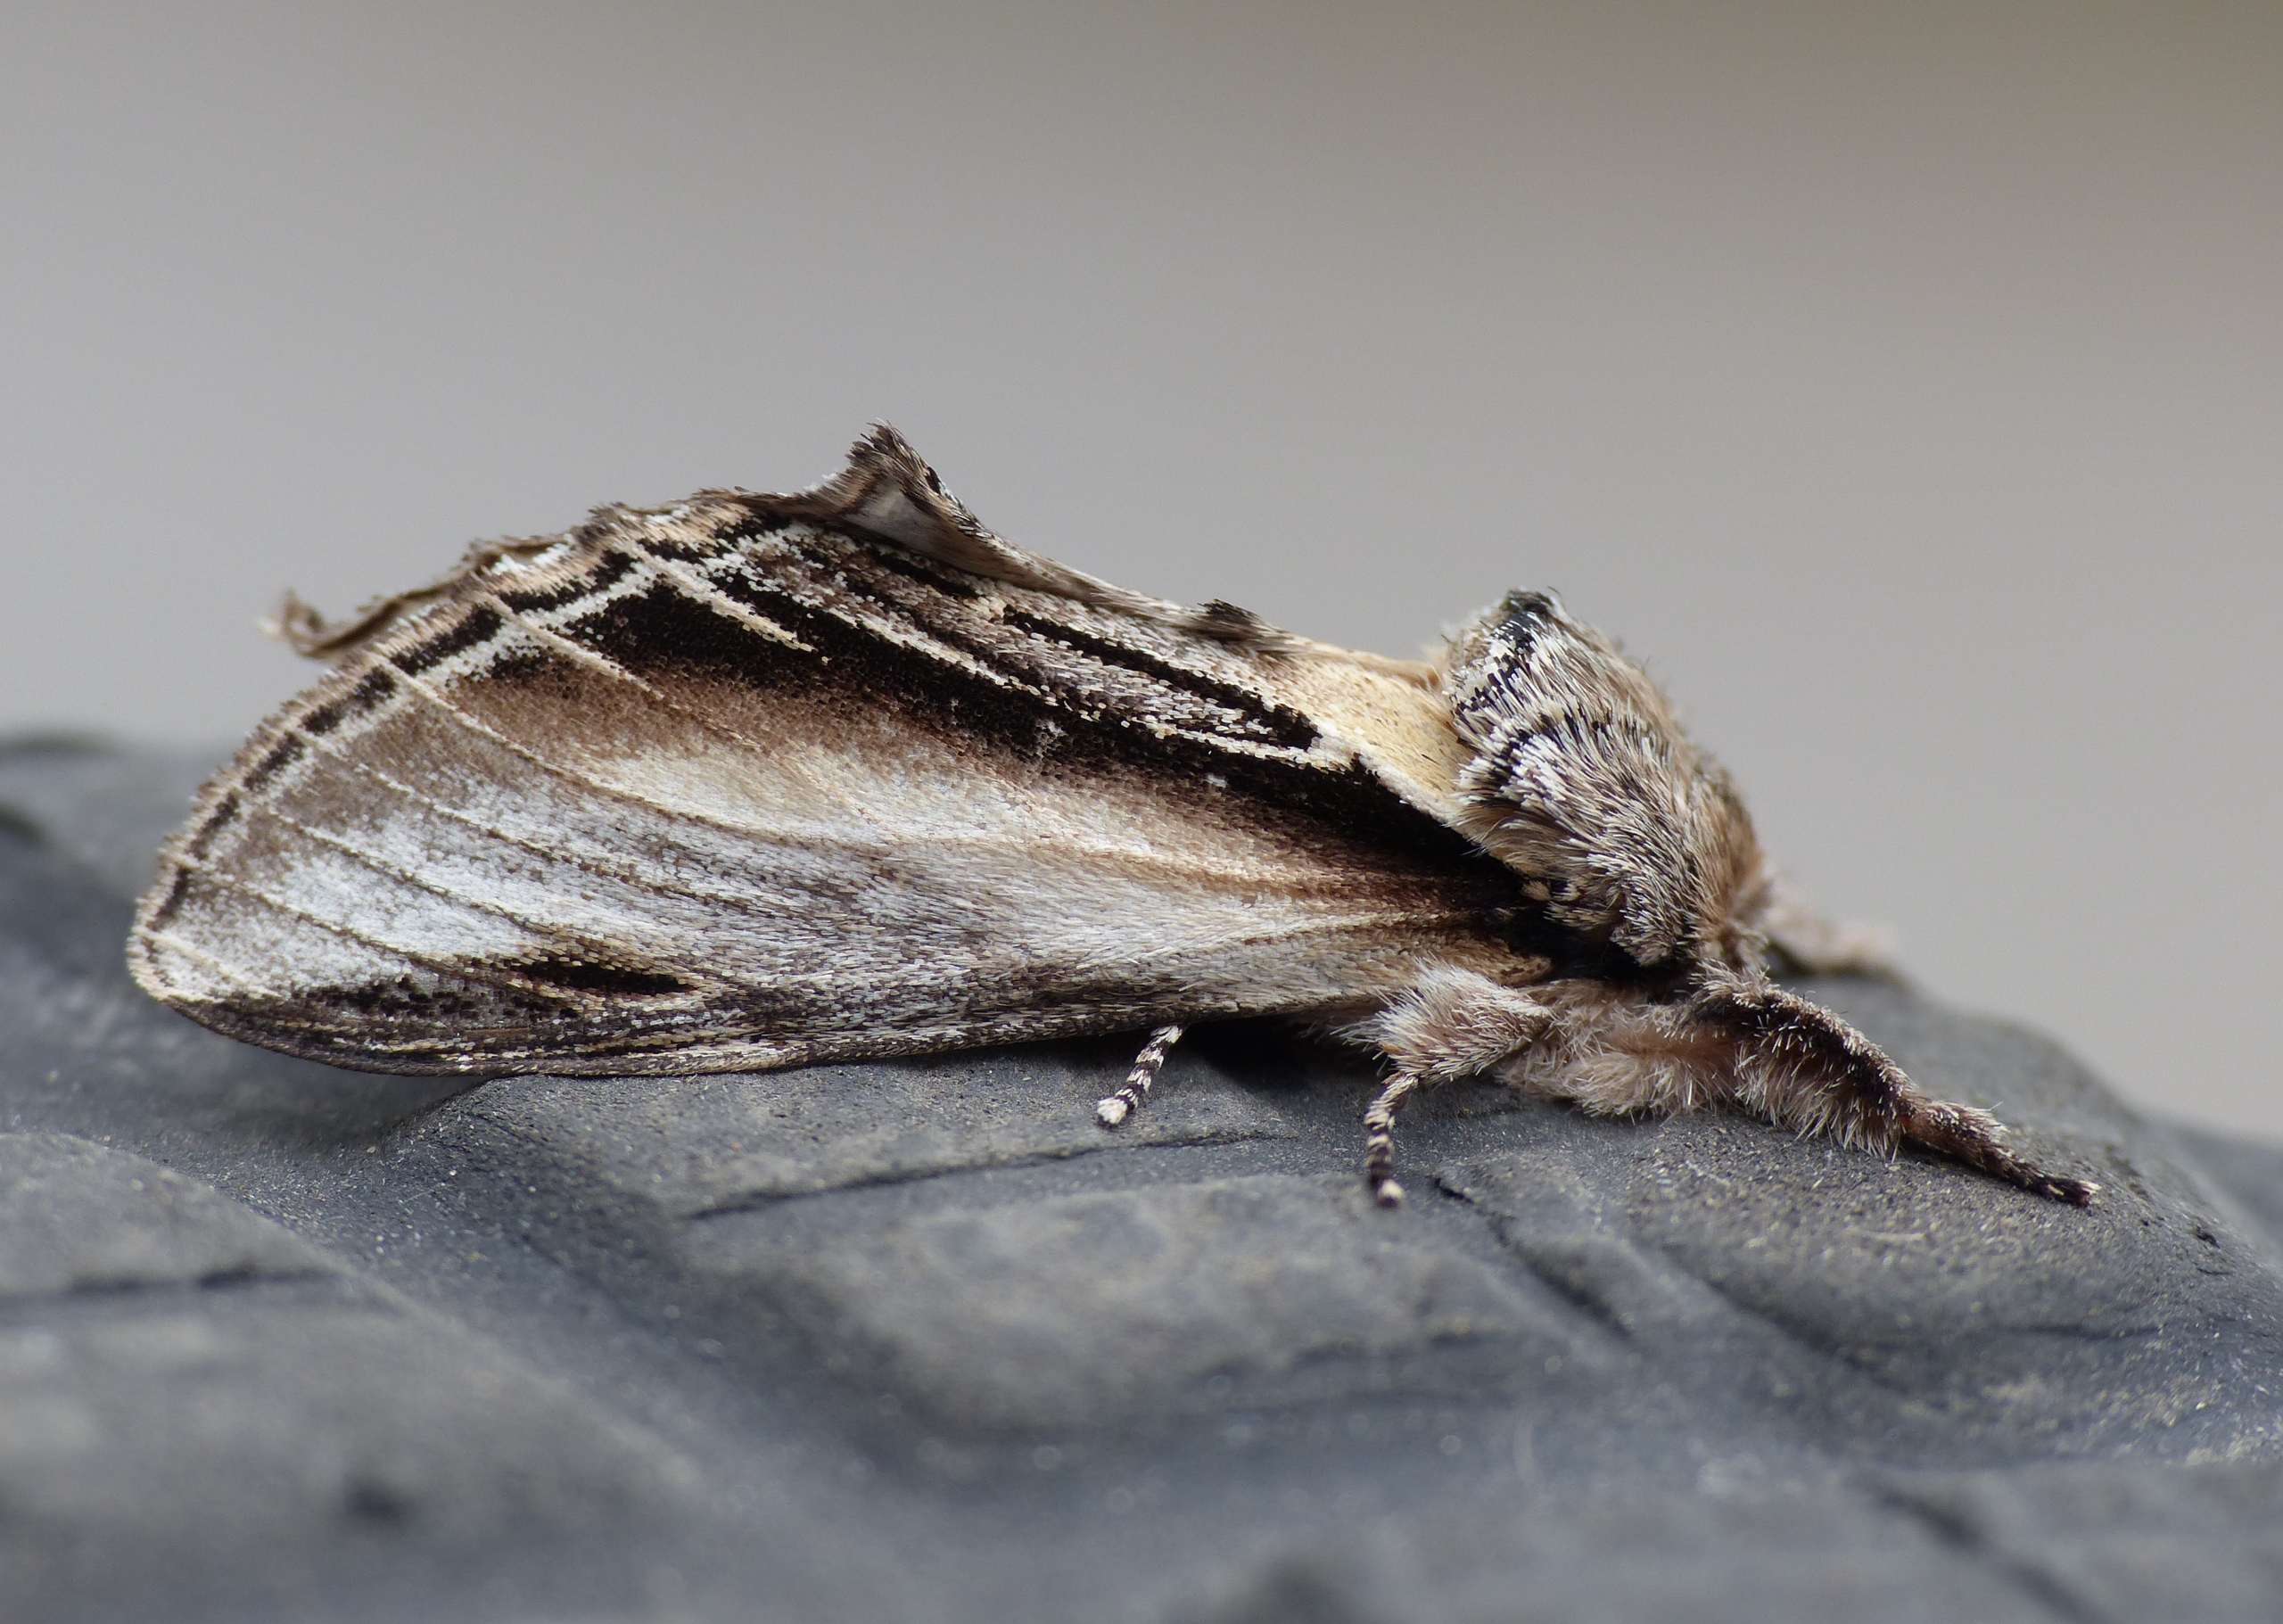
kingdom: Animalia
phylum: Arthropoda
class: Insecta
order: Lepidoptera
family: Notodontidae
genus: Pheosia
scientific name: Pheosia tremula
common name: Poppelporcelænsspinder
